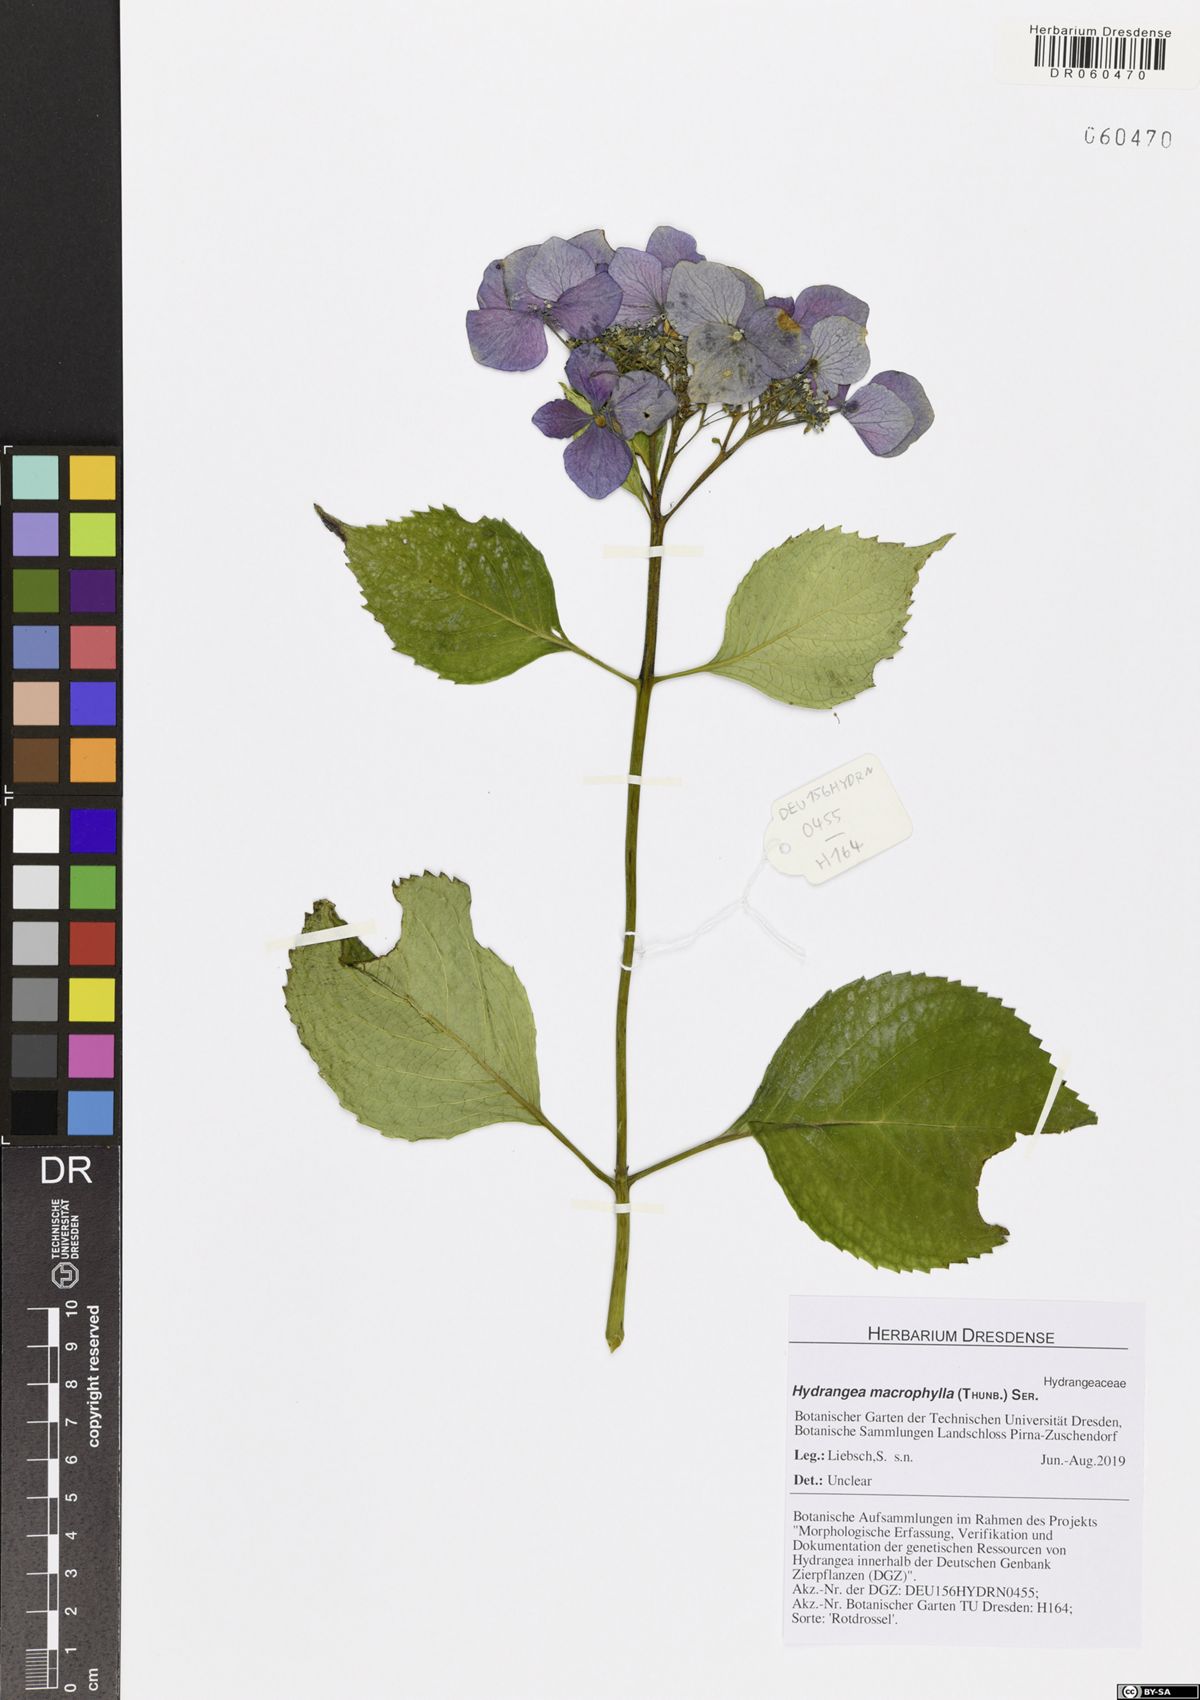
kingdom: Plantae
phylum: Tracheophyta
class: Magnoliopsida
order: Cornales
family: Hydrangeaceae
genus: Hydrangea
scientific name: Hydrangea macrophylla
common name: Hydrangea
